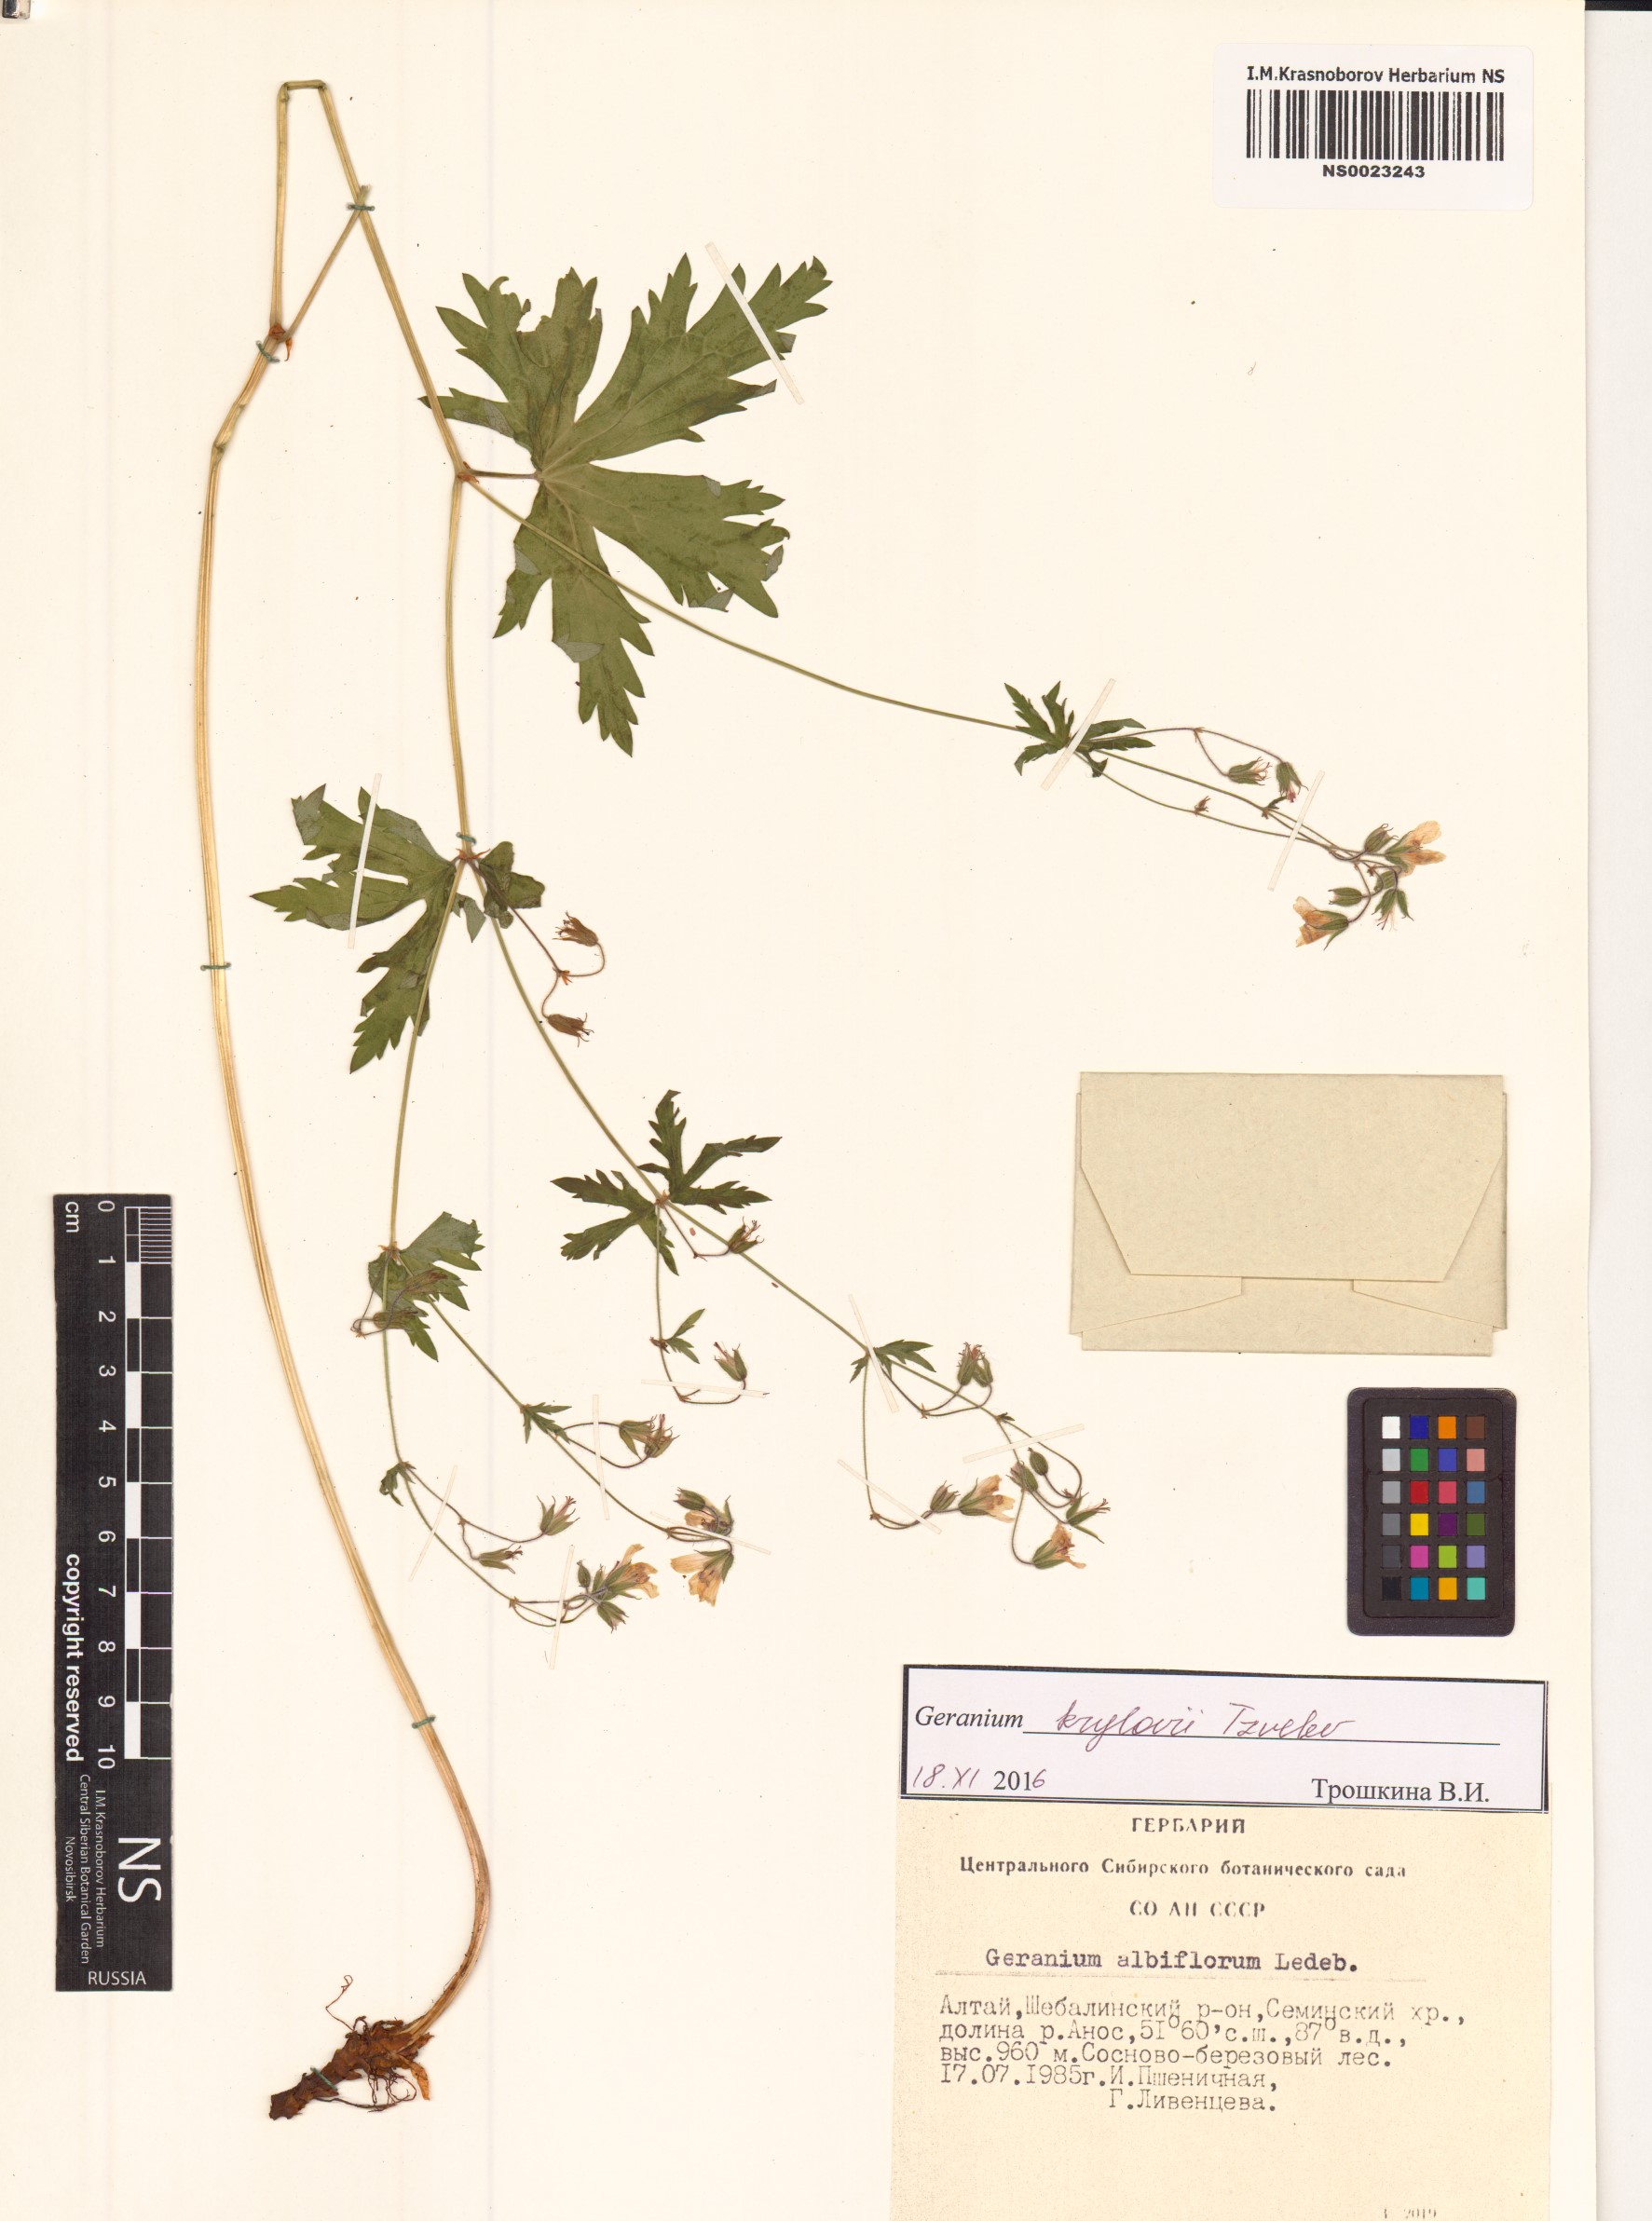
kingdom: Plantae
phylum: Tracheophyta
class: Magnoliopsida
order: Geraniales
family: Geraniaceae
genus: Geranium
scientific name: Geranium sylvaticum
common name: Wood crane's-bill
